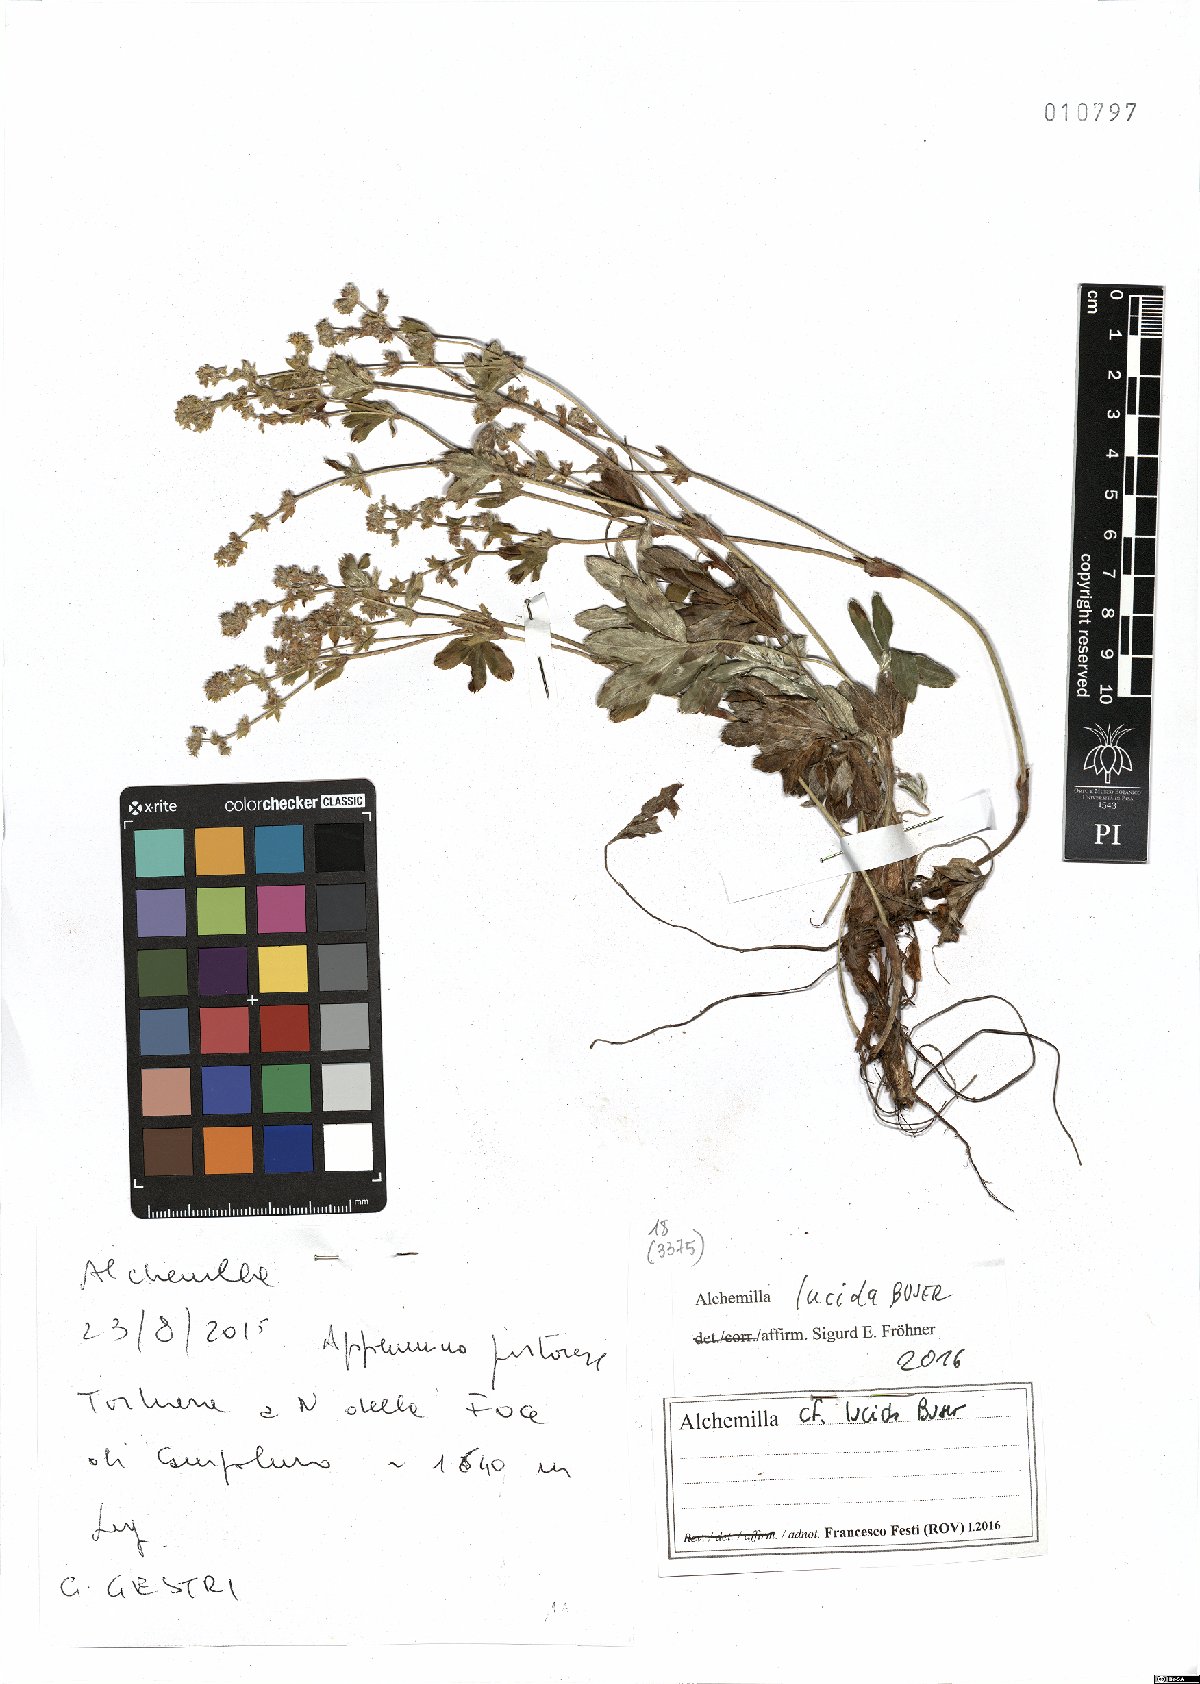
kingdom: Plantae
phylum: Tracheophyta
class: Magnoliopsida
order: Rosales
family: Rosaceae
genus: Alchemilla
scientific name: Alchemilla lucida
